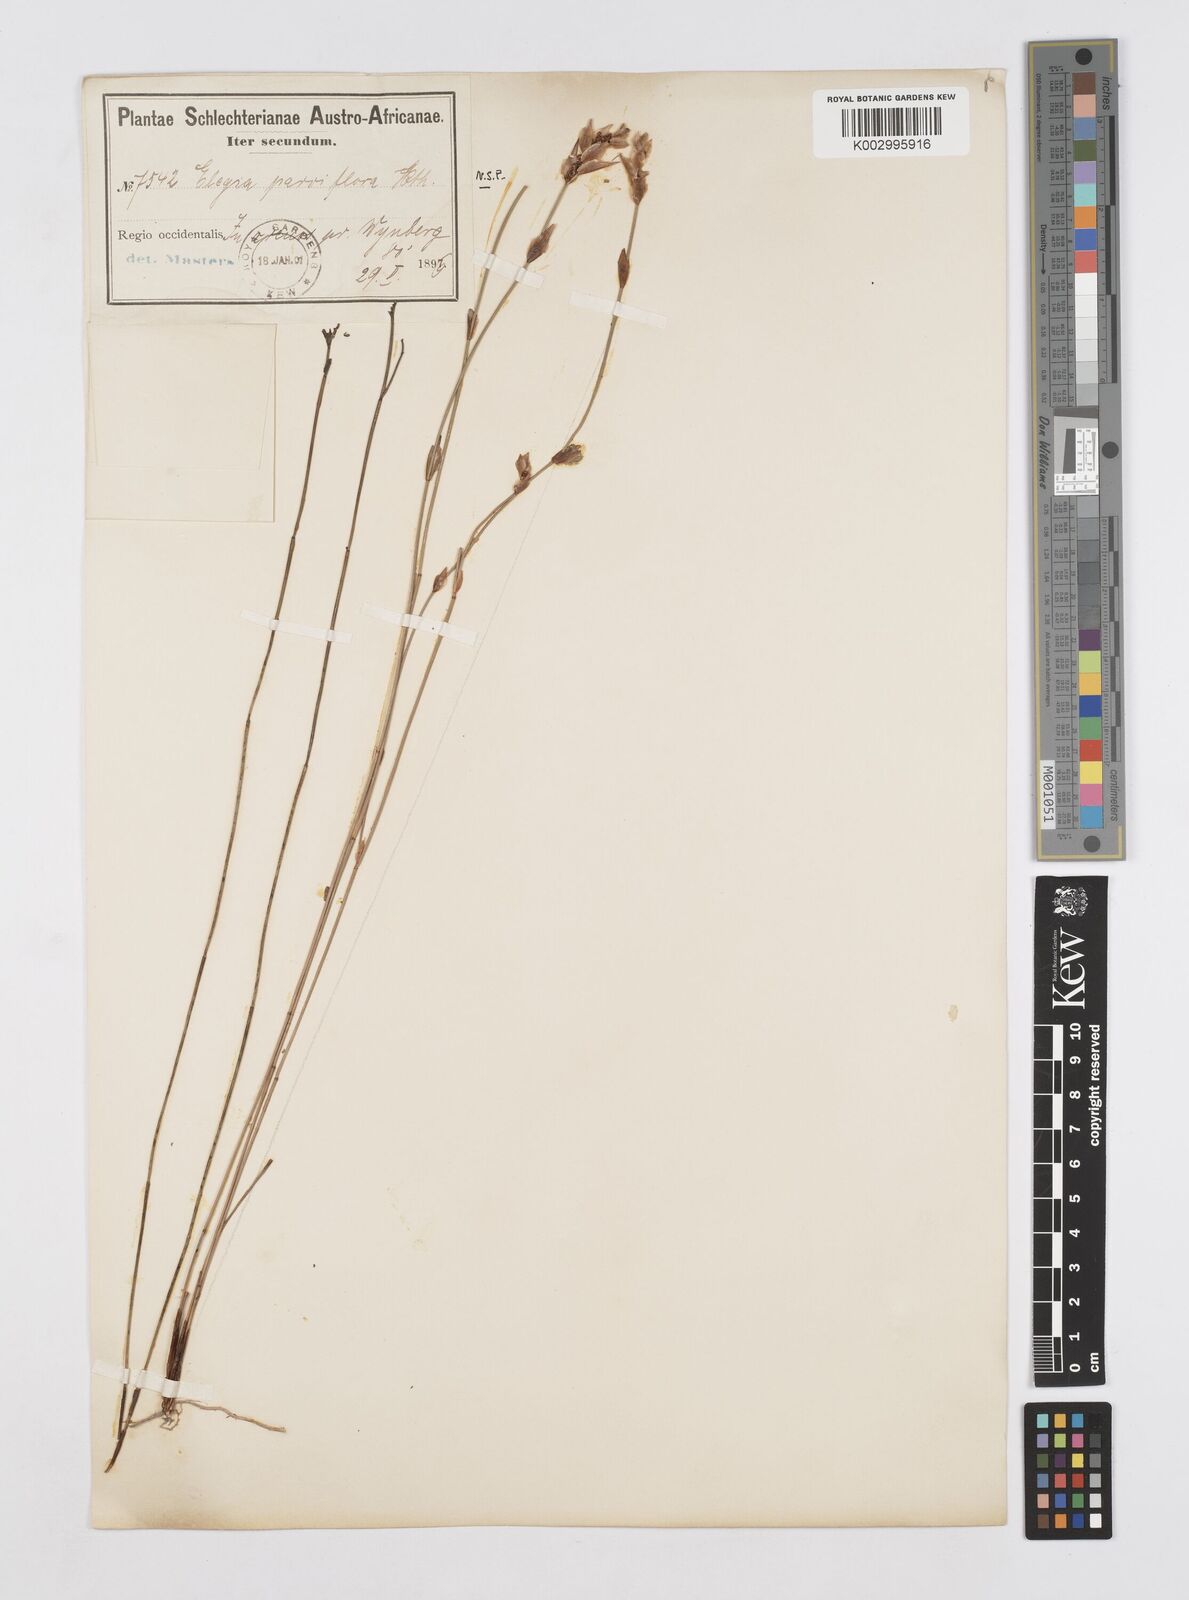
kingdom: Plantae
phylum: Tracheophyta
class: Liliopsida
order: Poales
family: Restionaceae
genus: Cannomois
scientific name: Cannomois parviflora
